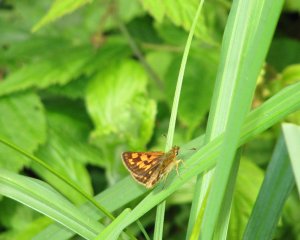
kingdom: Animalia
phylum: Arthropoda
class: Insecta
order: Lepidoptera
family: Hesperiidae
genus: Carterocephalus
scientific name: Carterocephalus palaemon
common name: Chequered Skipper
